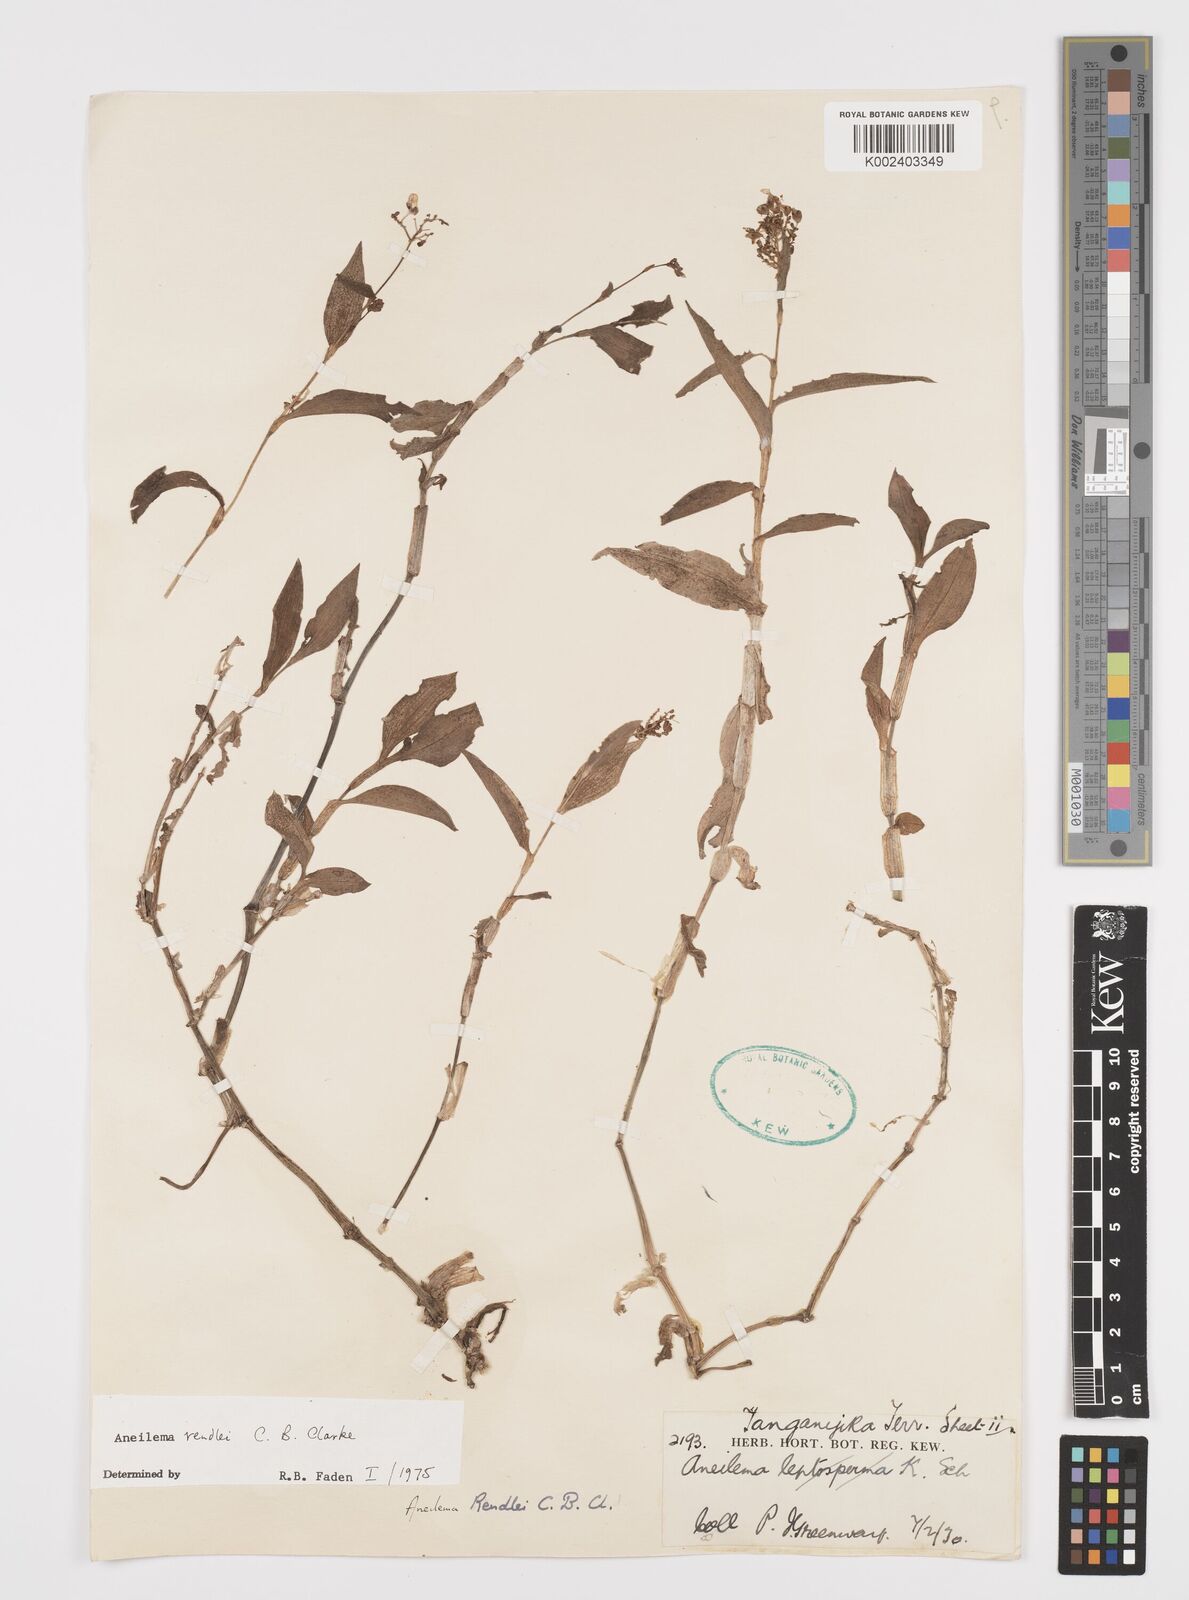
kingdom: Plantae
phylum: Tracheophyta
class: Liliopsida
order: Commelinales
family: Commelinaceae
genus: Aneilema
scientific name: Aneilema rendlei
